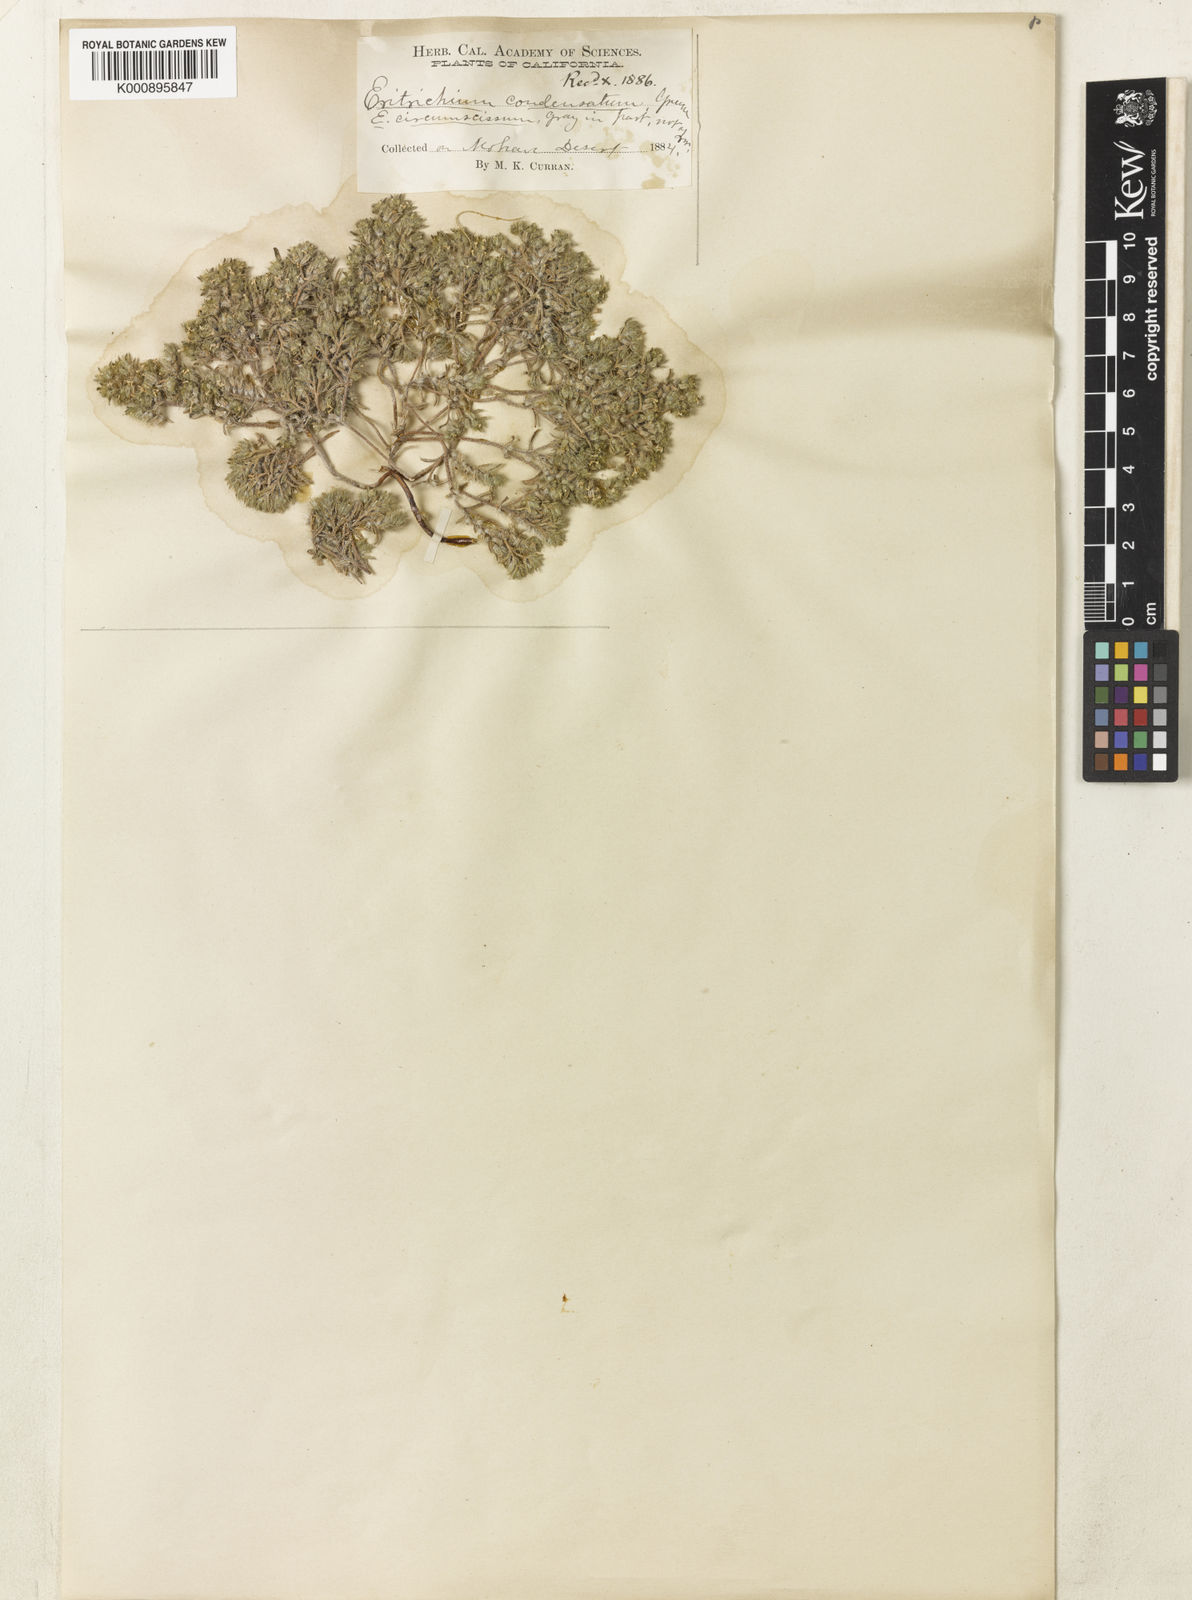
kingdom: Plantae
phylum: Tracheophyta
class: Magnoliopsida
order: Boraginales
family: Boraginaceae
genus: Greeneocharis
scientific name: Greeneocharis circumscissa
